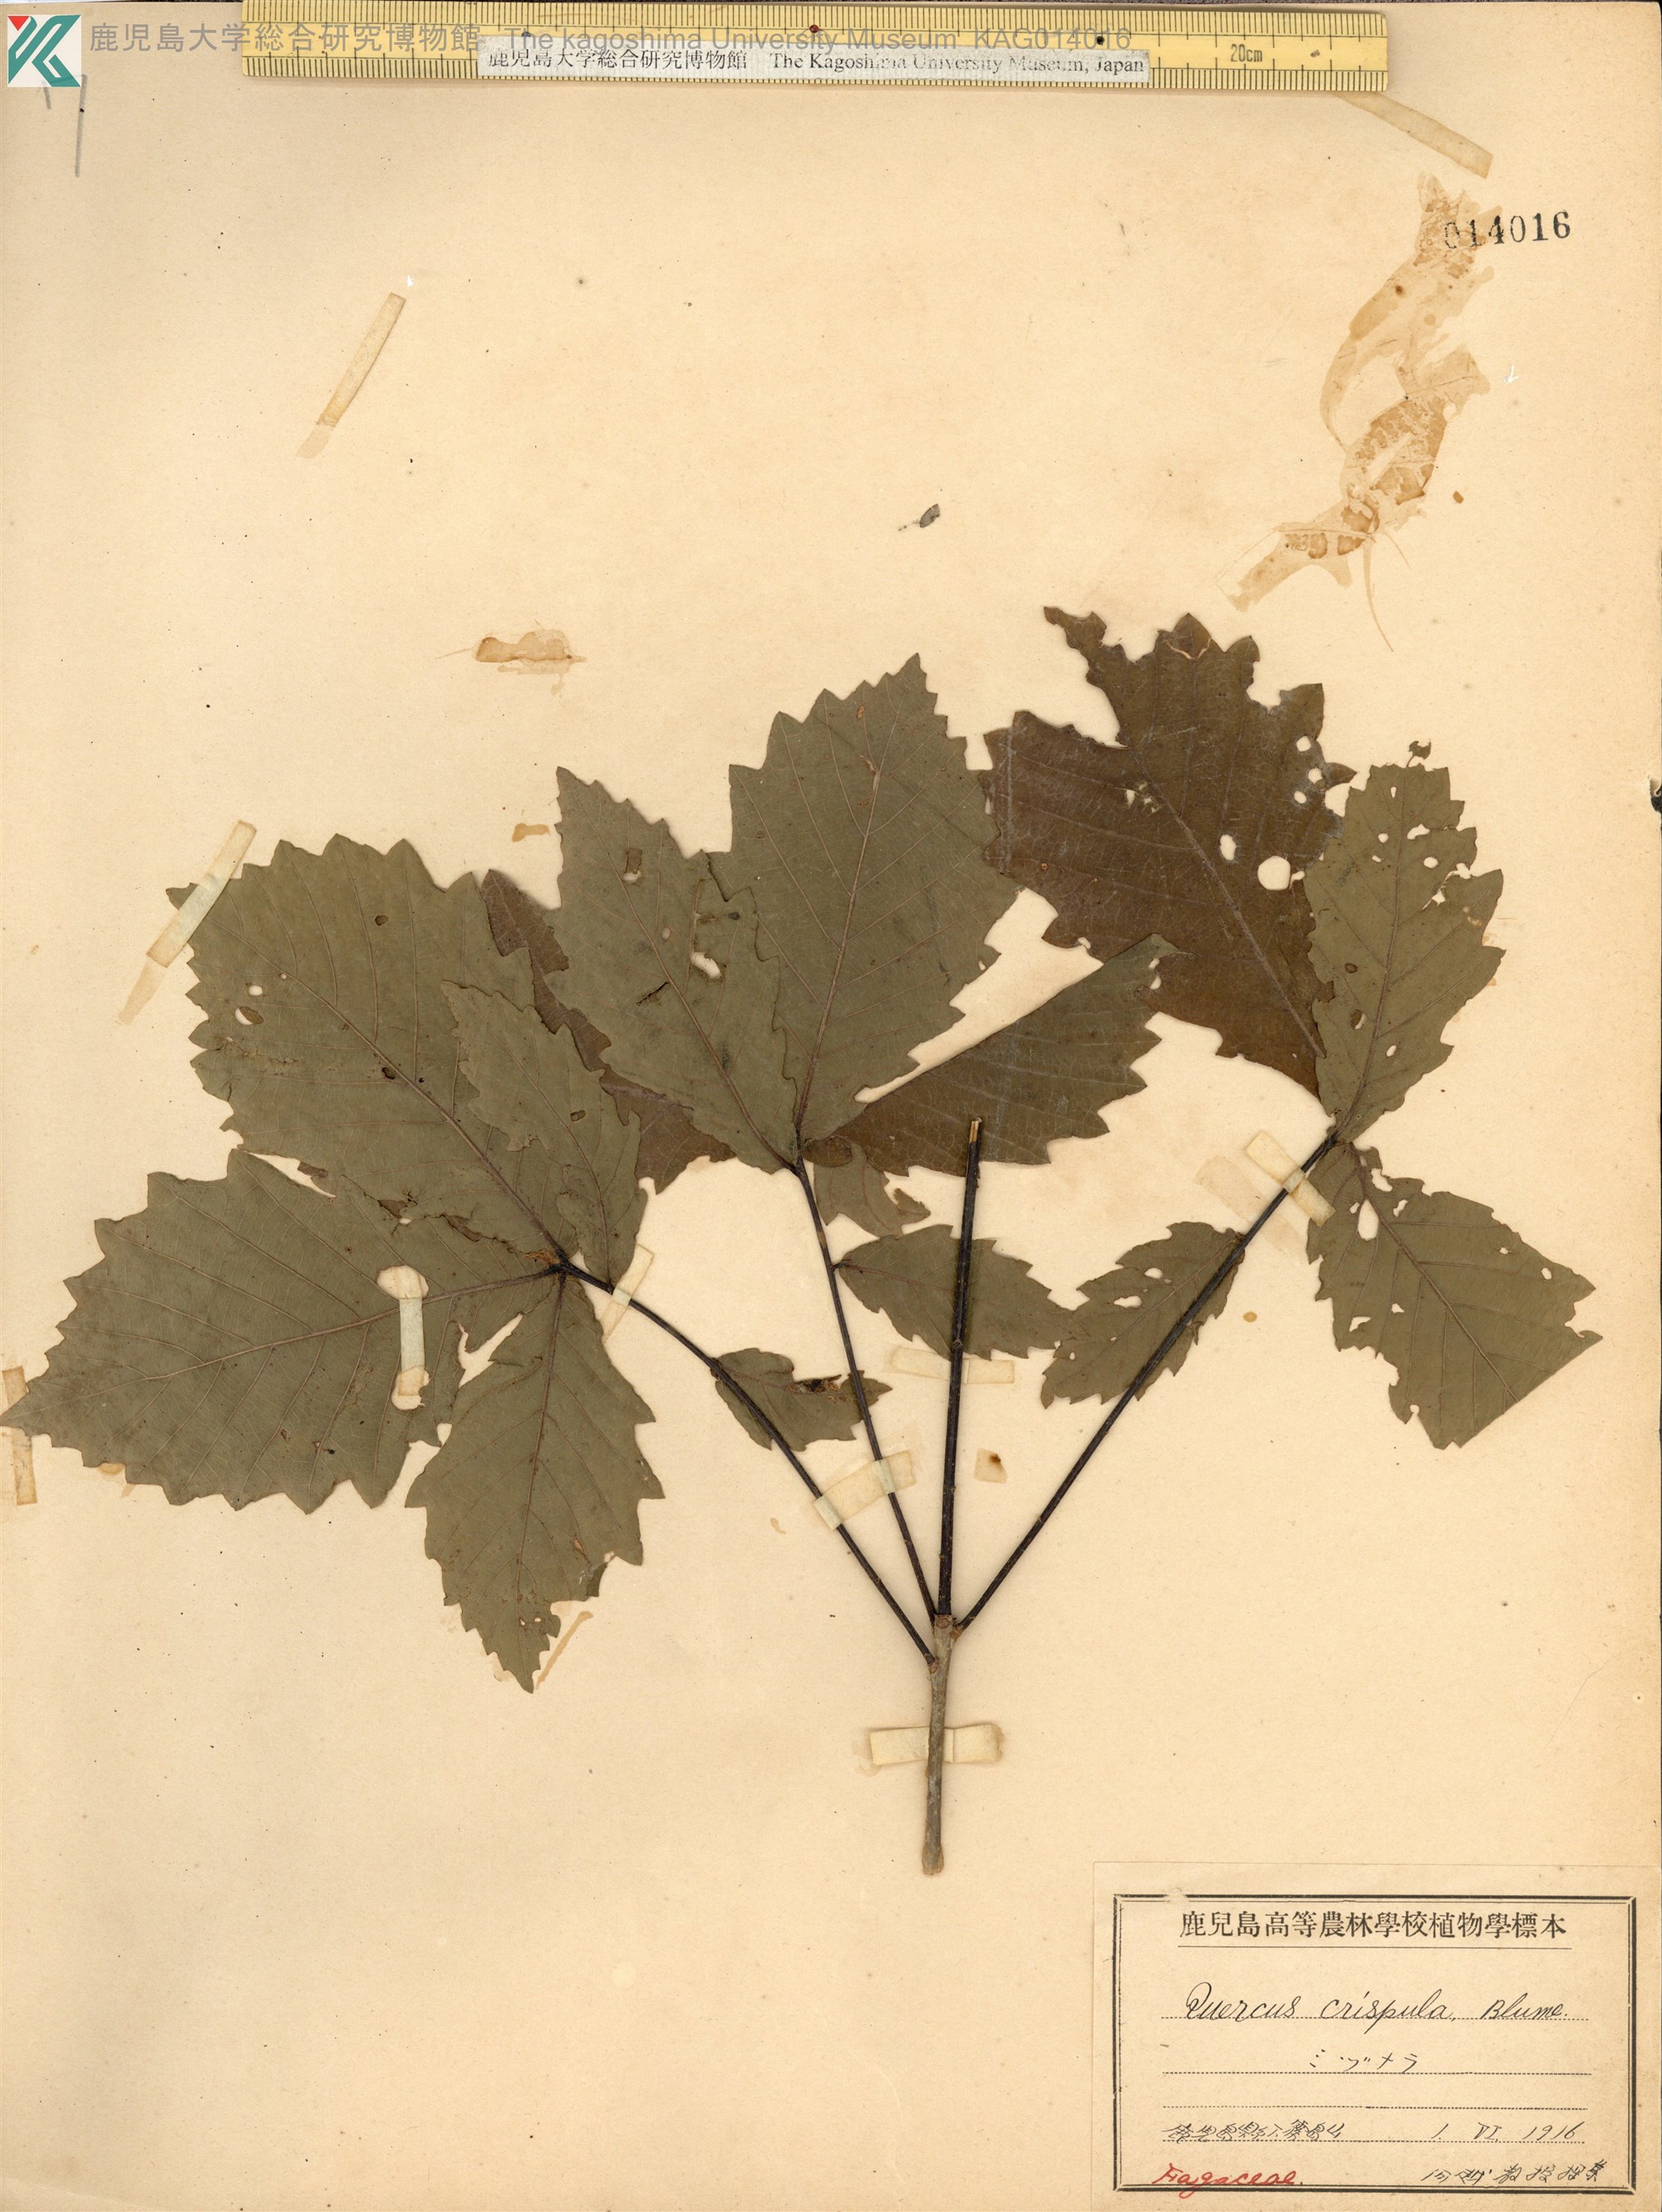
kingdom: Plantae
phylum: Tracheophyta
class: Magnoliopsida
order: Fagales
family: Fagaceae
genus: Quercus
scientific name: Quercus crispula
